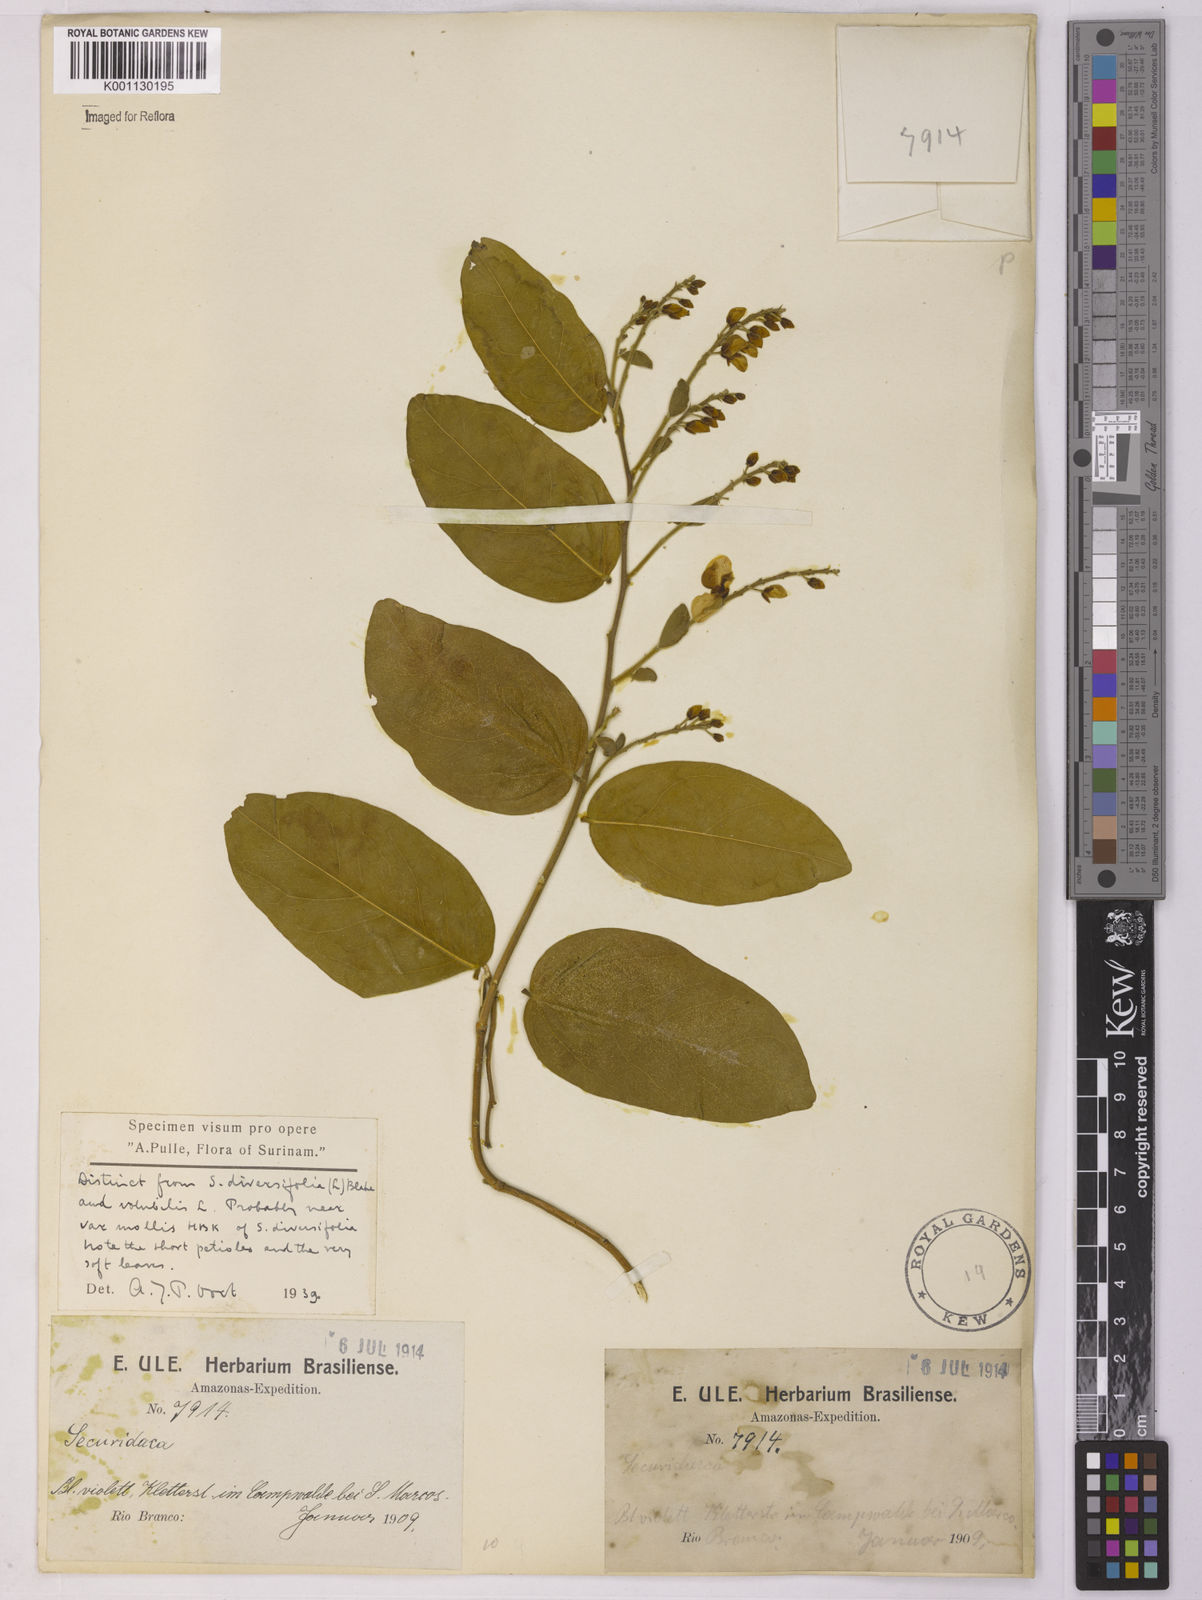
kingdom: Plantae
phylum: Tracheophyta
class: Magnoliopsida
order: Fabales
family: Polygalaceae
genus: Securidaca
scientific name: Securidaca
